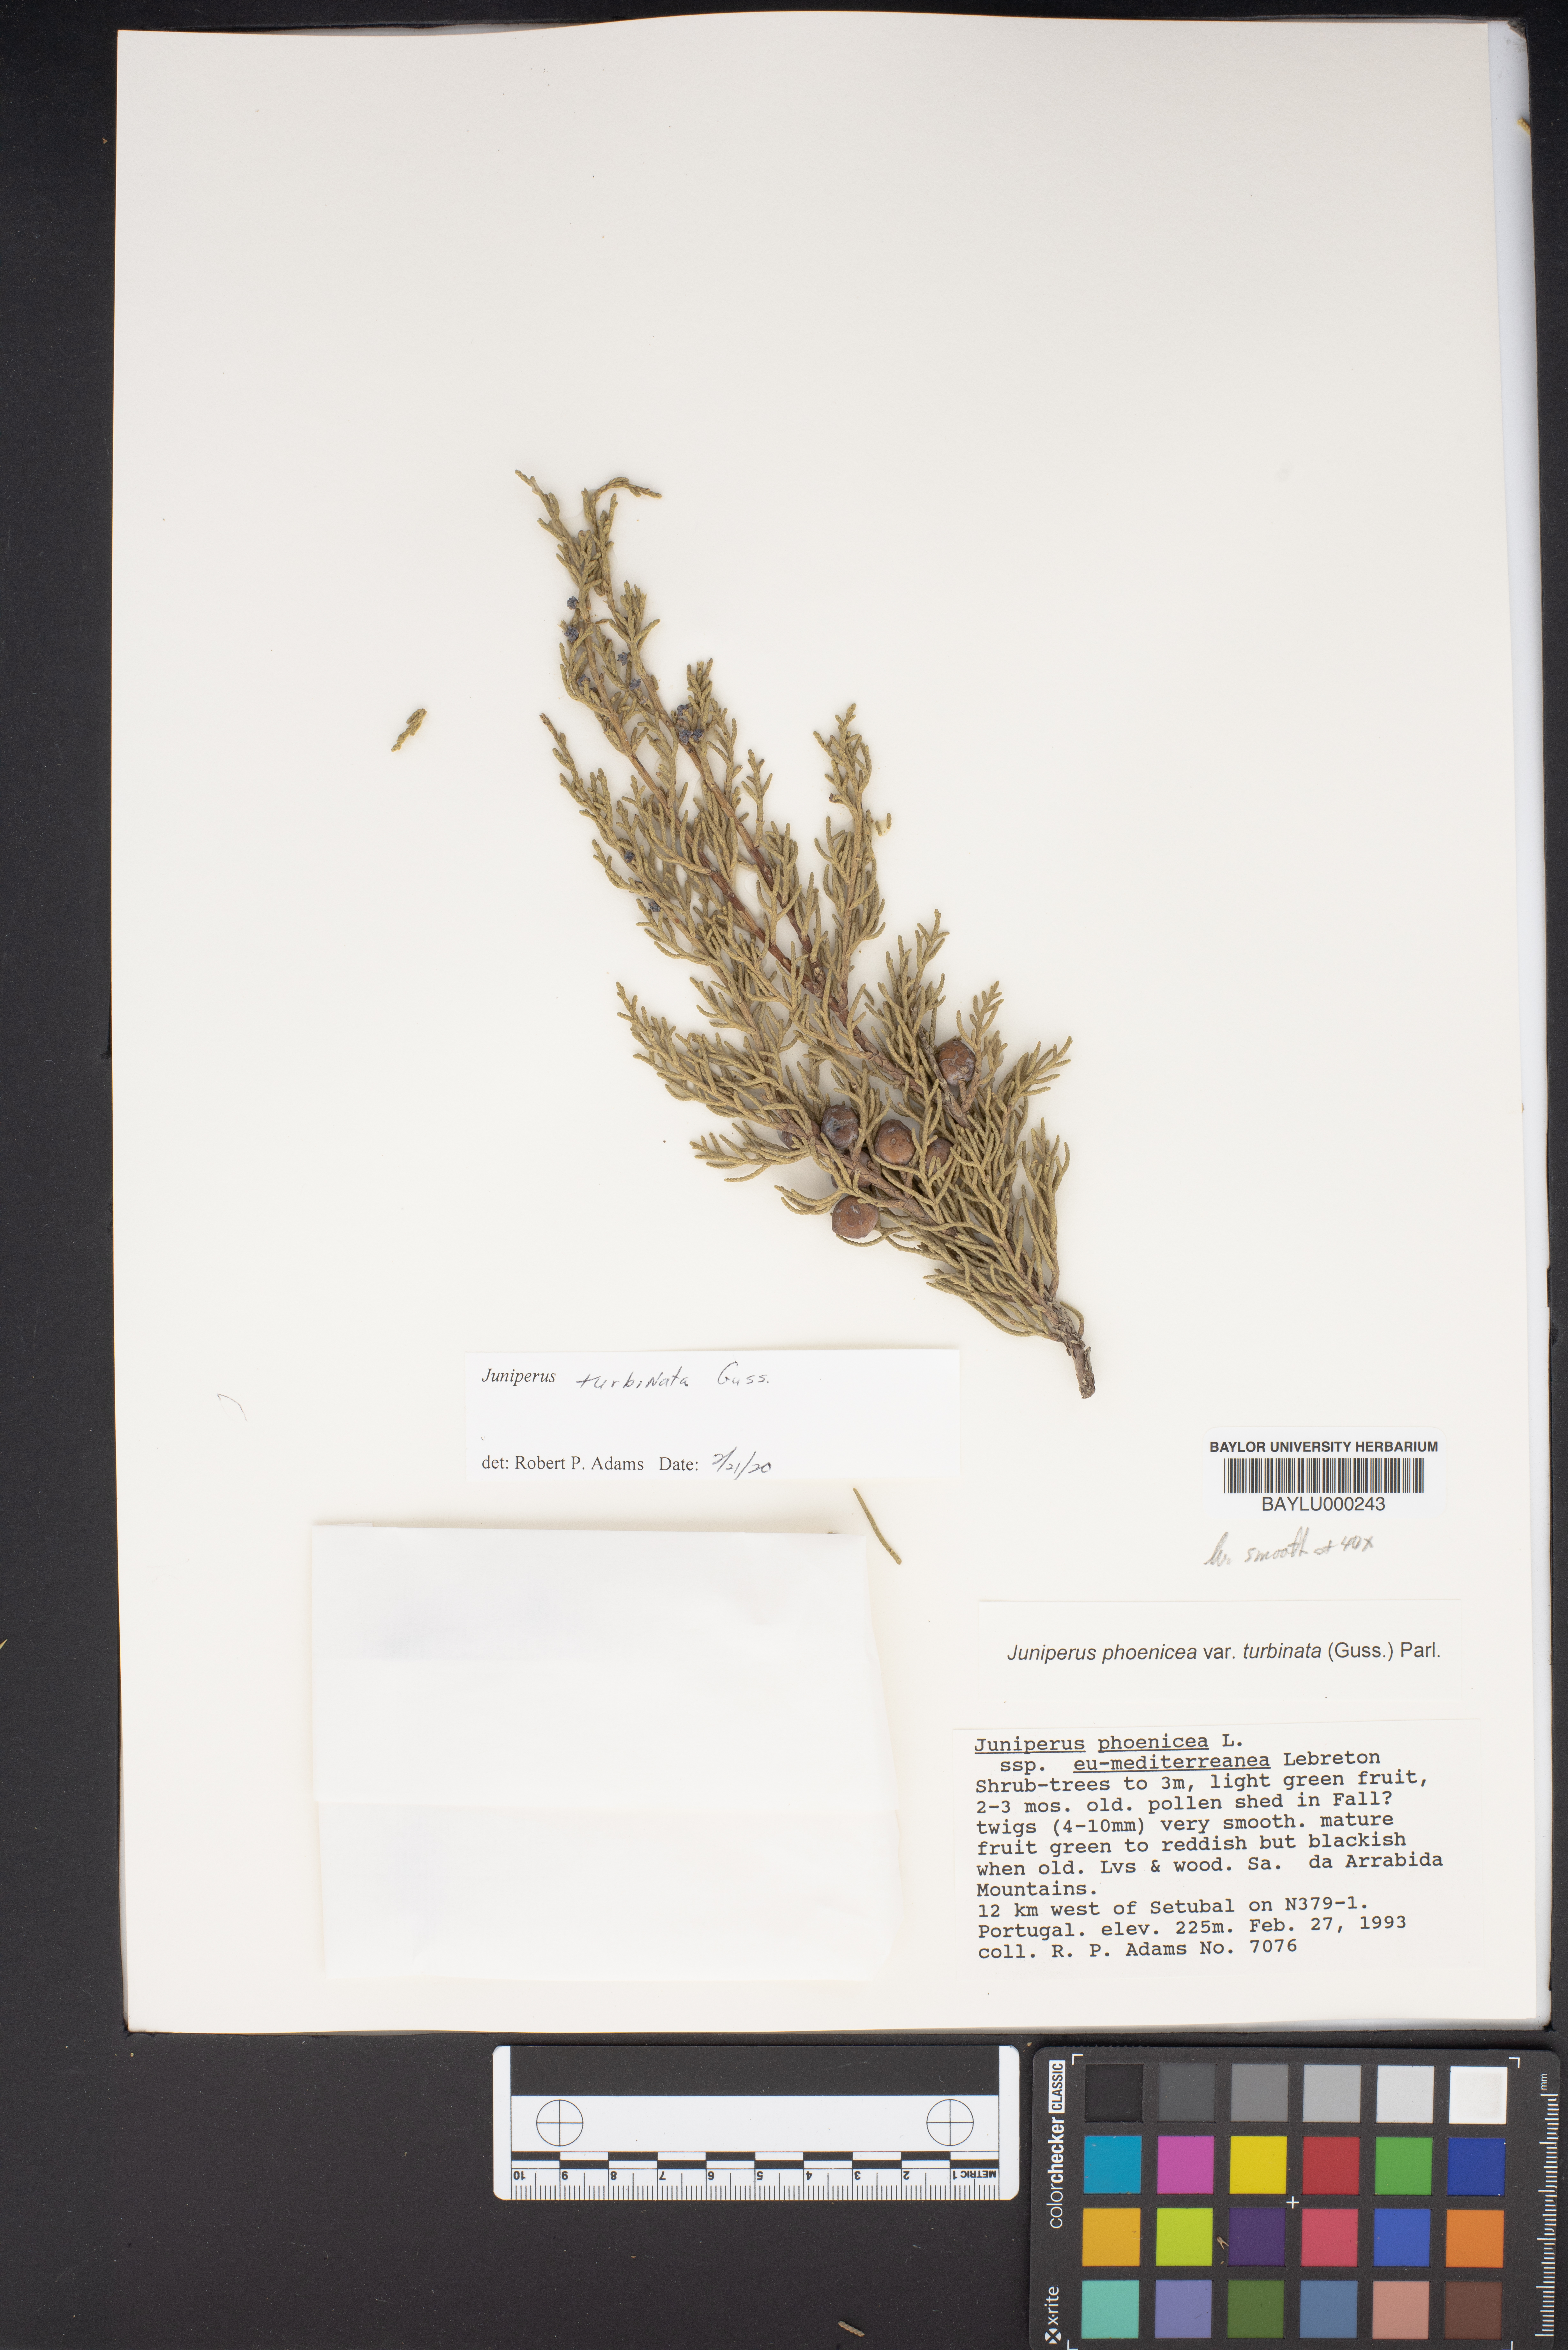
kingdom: Plantae
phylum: Tracheophyta
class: Pinopsida
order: Pinales
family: Cupressaceae
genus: Juniperus
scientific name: Juniperus phoenicea
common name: Phoenician juniper
